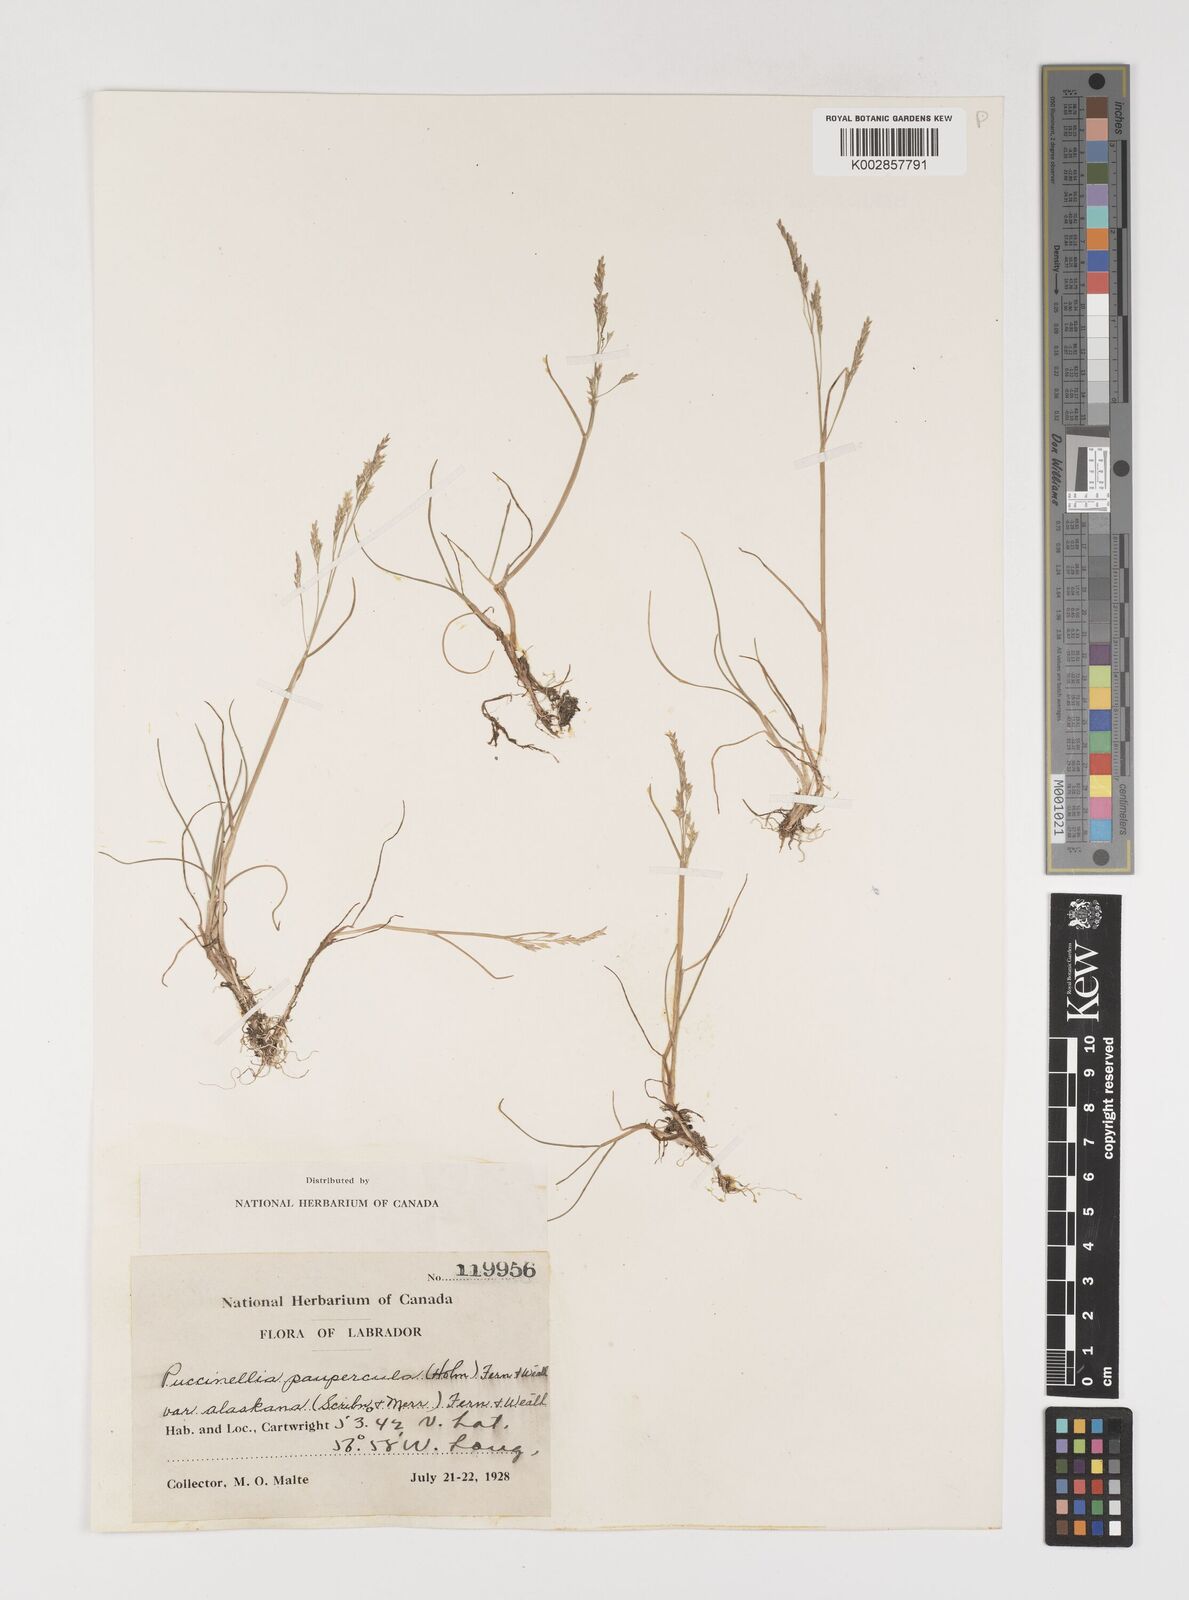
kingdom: Plantae
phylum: Tracheophyta
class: Liliopsida
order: Poales
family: Poaceae
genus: Puccinellia
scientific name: Puccinellia pumila
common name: Dwarf alkaligrass
